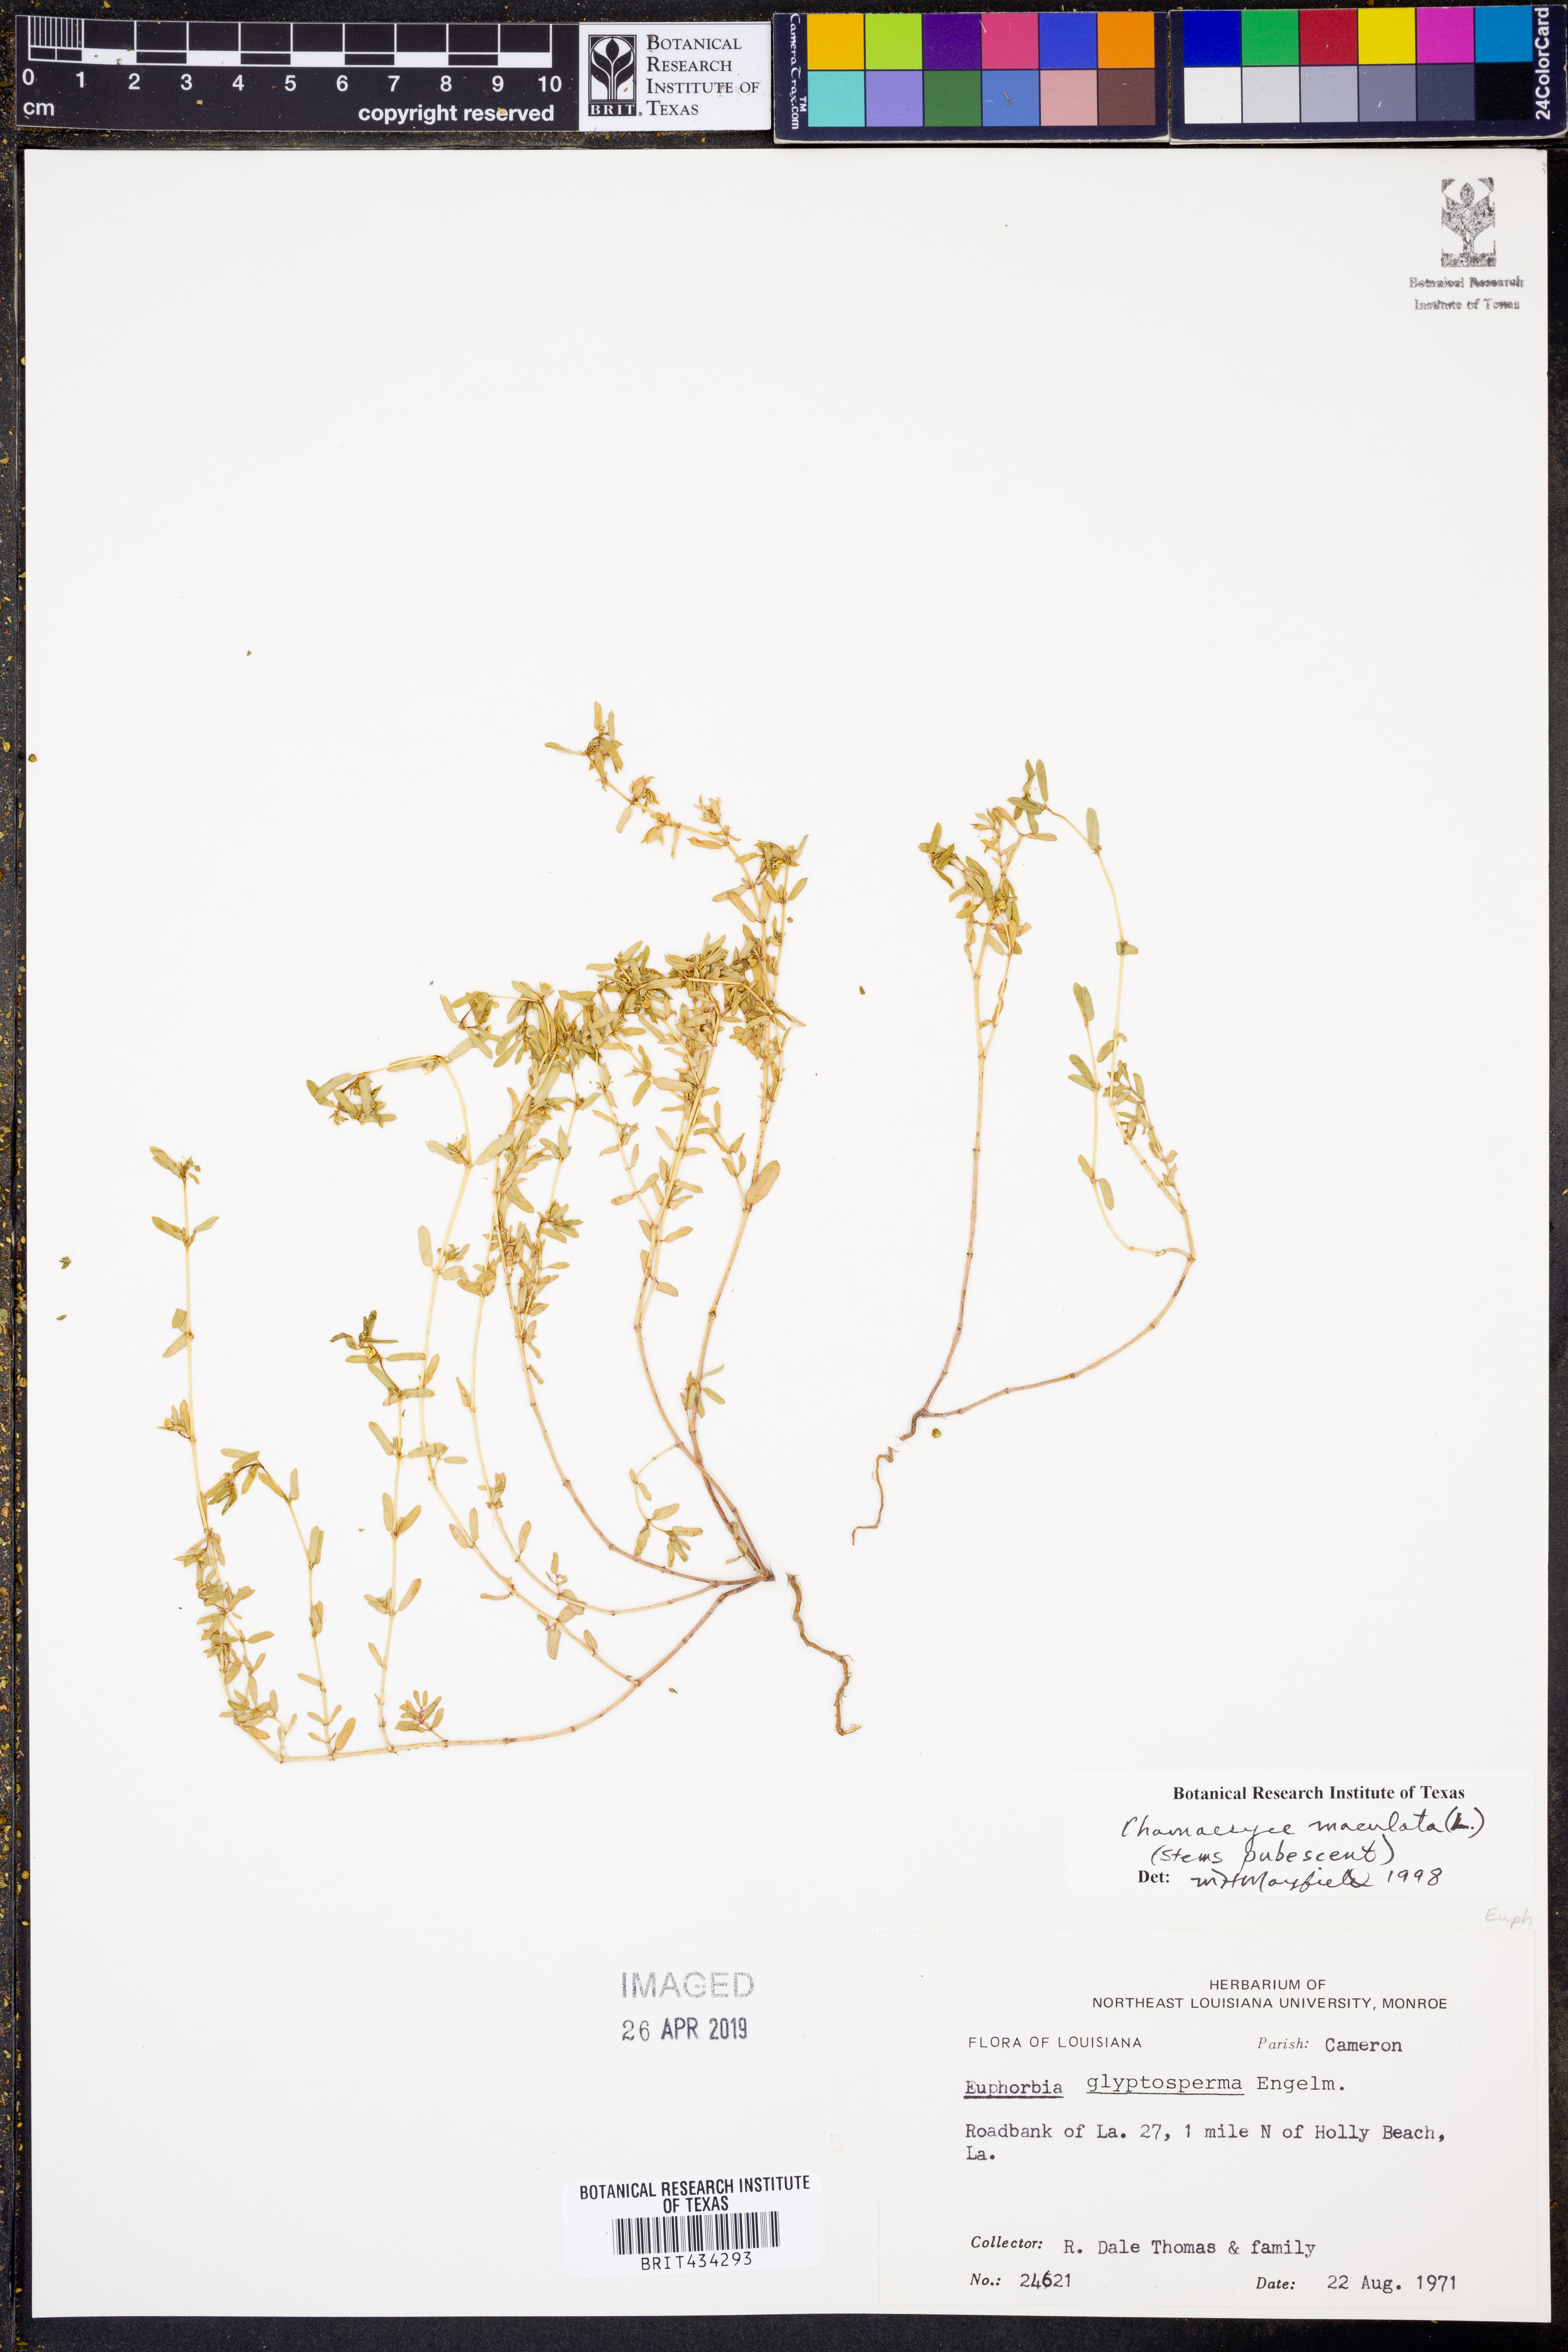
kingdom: Plantae
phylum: Tracheophyta
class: Magnoliopsida
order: Malpighiales
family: Euphorbiaceae
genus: Euphorbia
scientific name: Euphorbia maculata
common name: Spotted spurge
